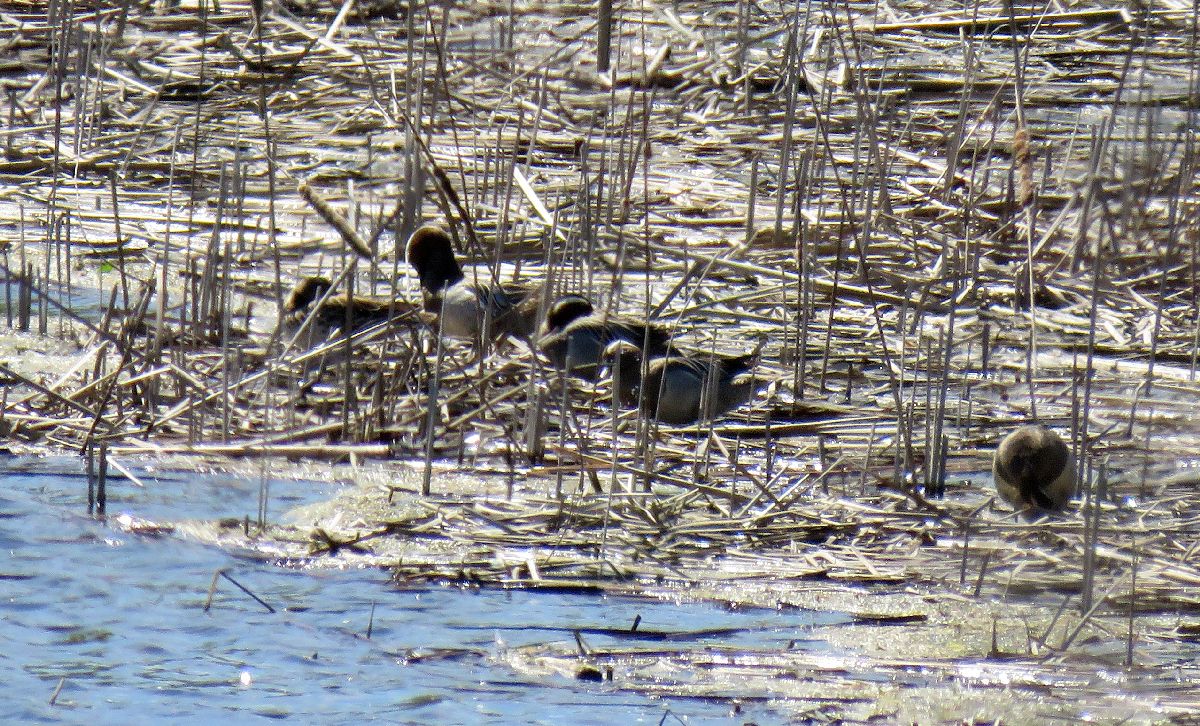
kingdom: Animalia
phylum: Chordata
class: Aves
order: Anseriformes
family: Anatidae
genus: Spatula
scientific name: Spatula querquedula
